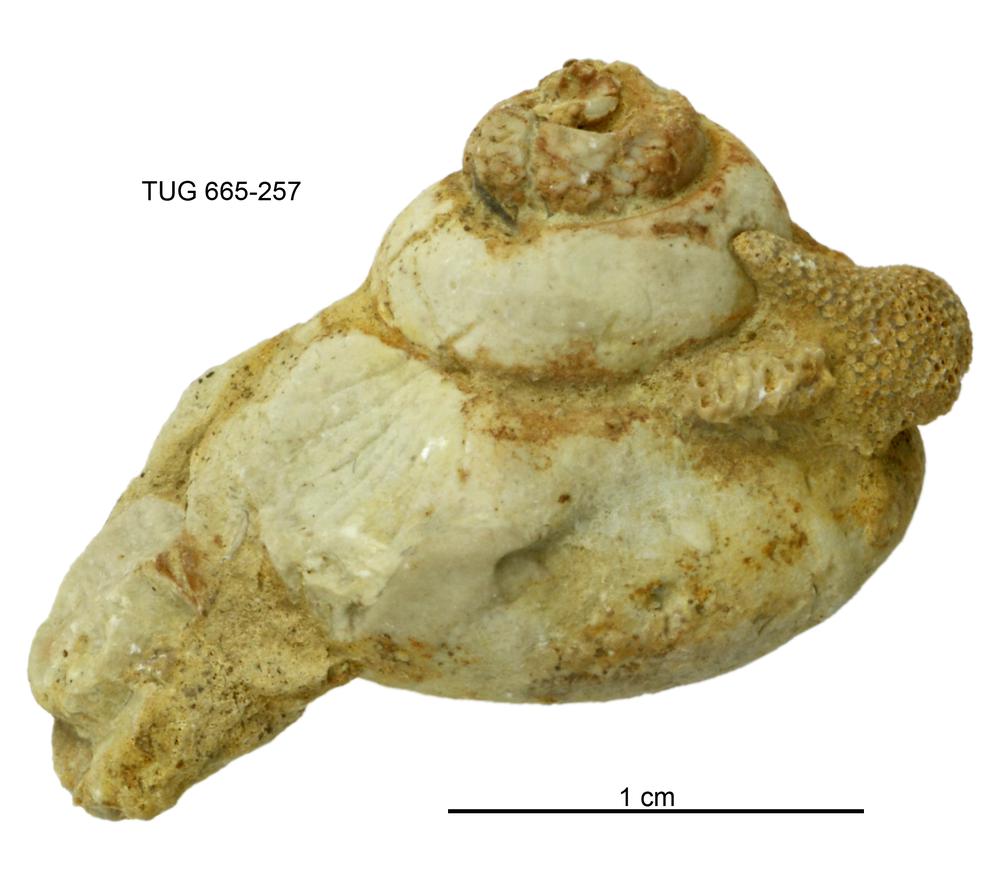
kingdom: Animalia
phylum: Mollusca
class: Gastropoda
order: Pleurotomariida
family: Eotomariidae
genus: Liospira
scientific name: Liospira Raphistoma wesenbergense
